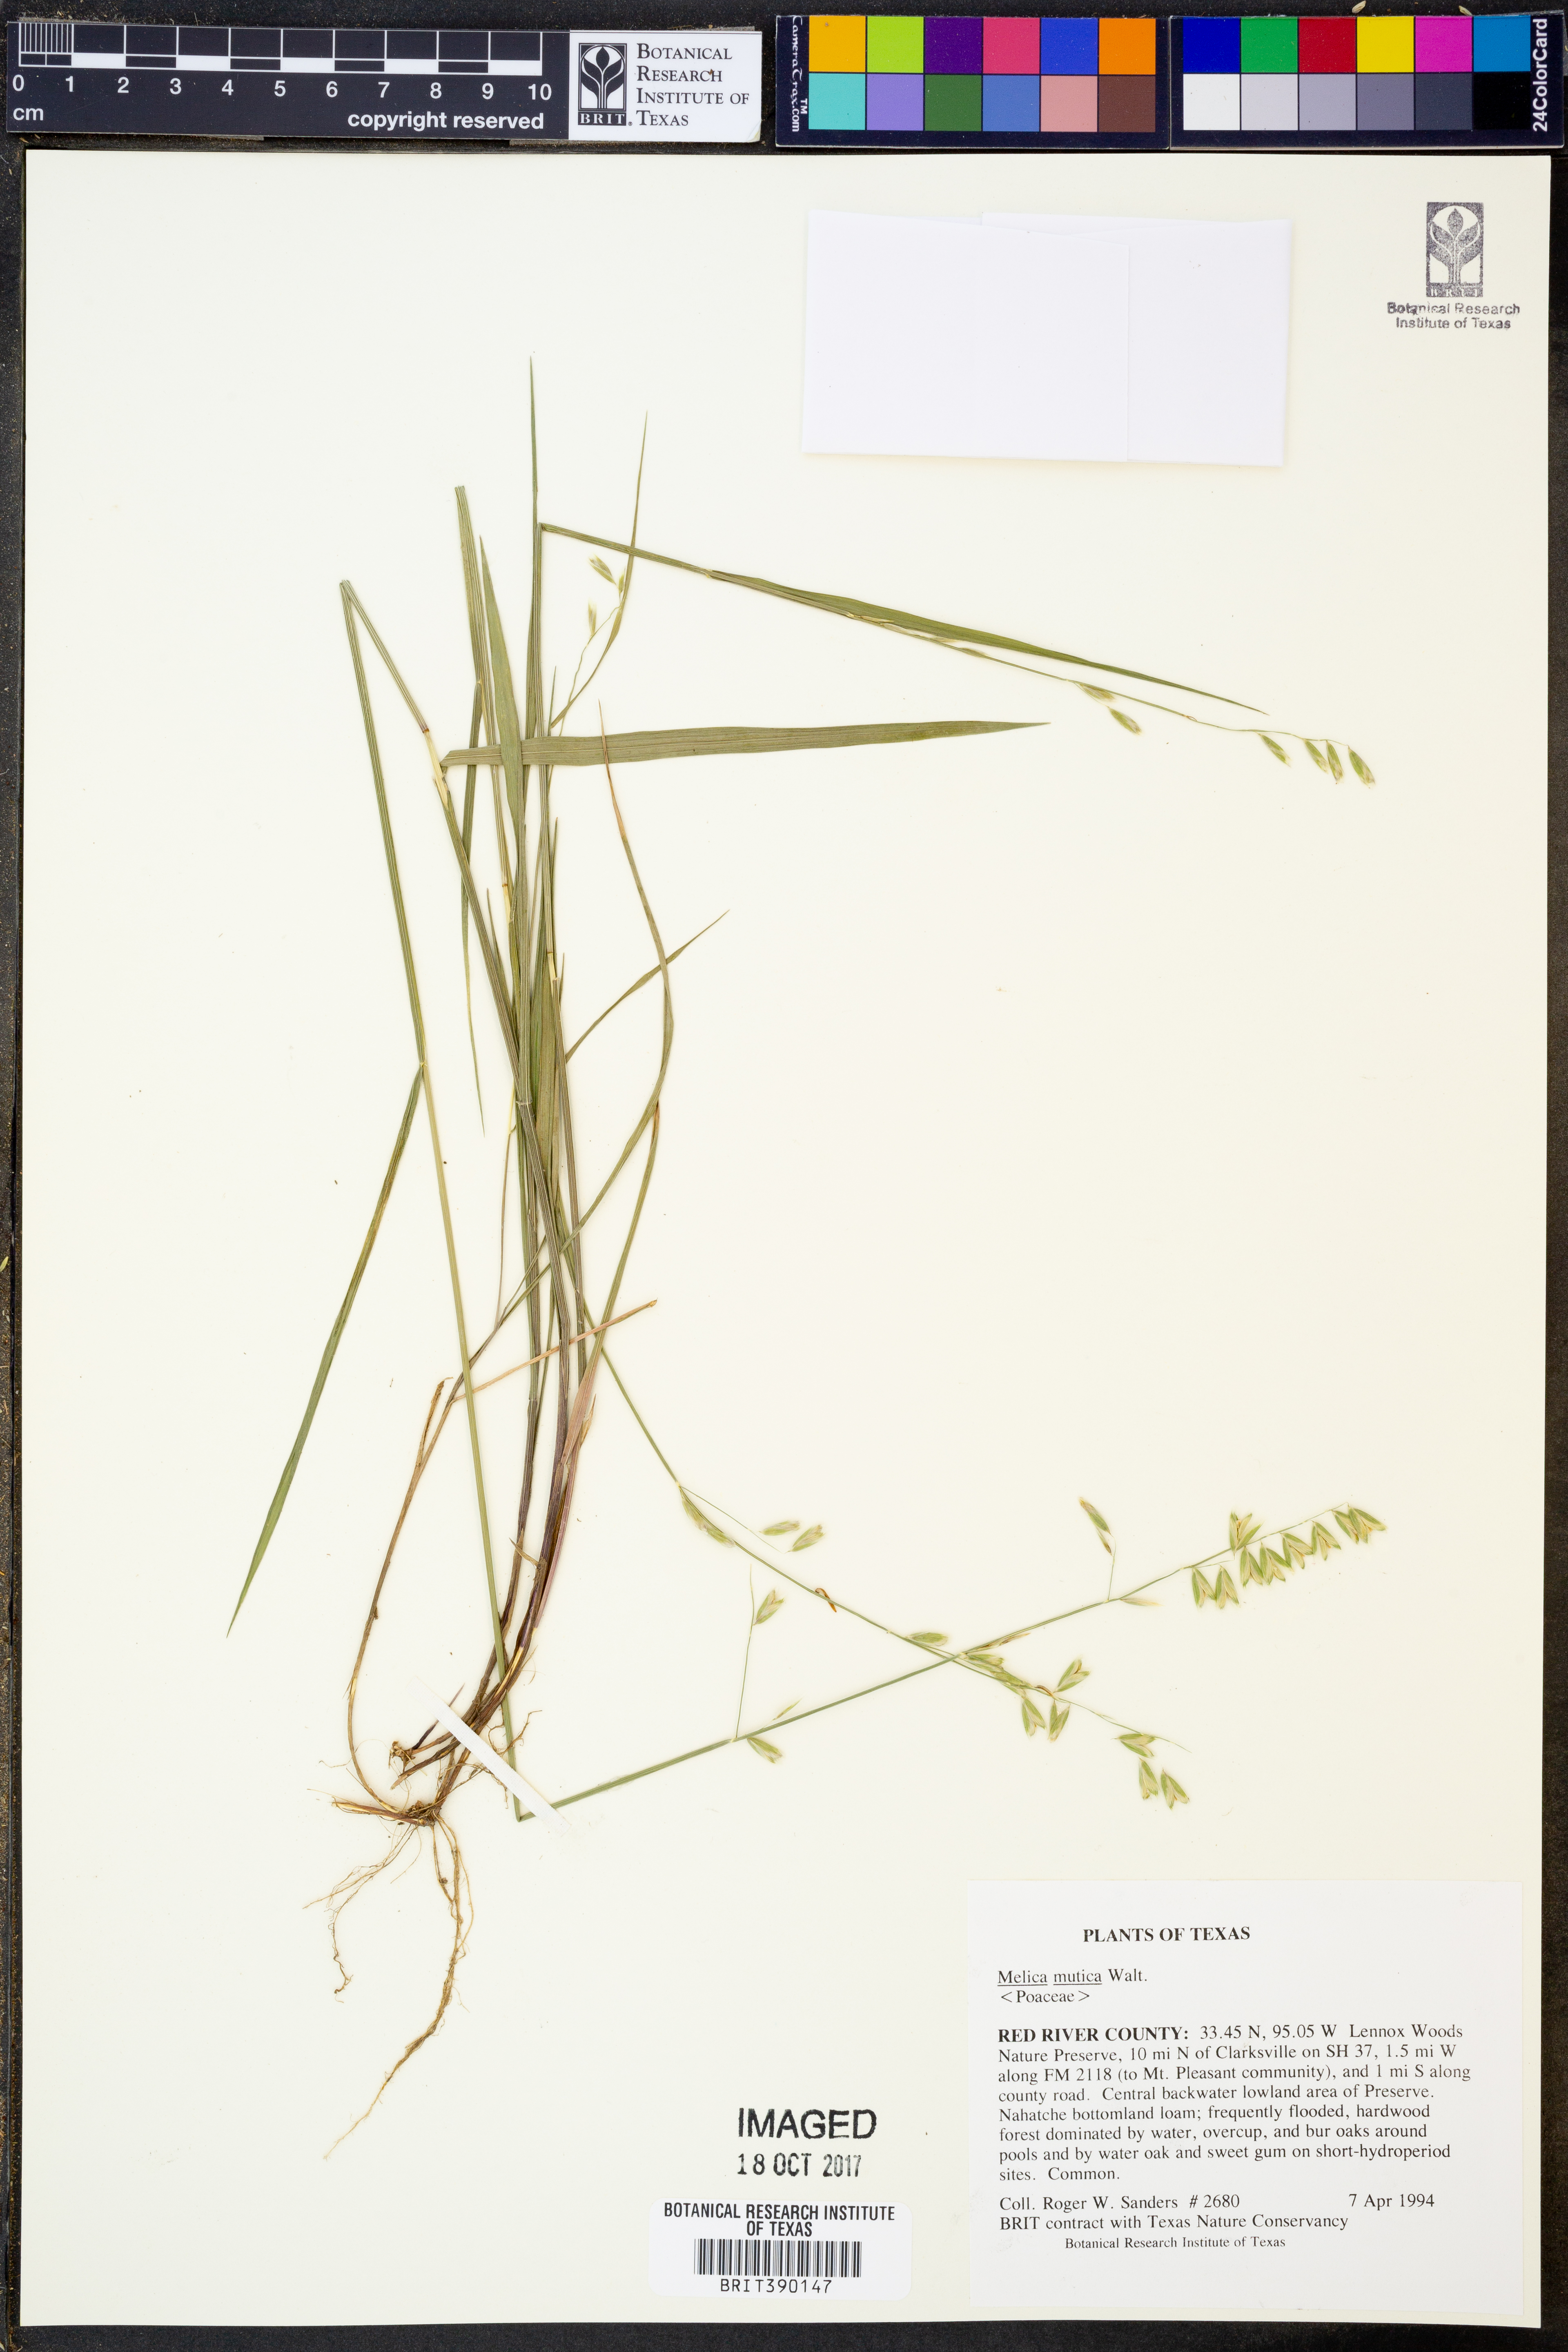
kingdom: Plantae
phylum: Tracheophyta
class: Liliopsida
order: Poales
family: Poaceae
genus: Melica
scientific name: Melica mutica
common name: Two-flower melic
